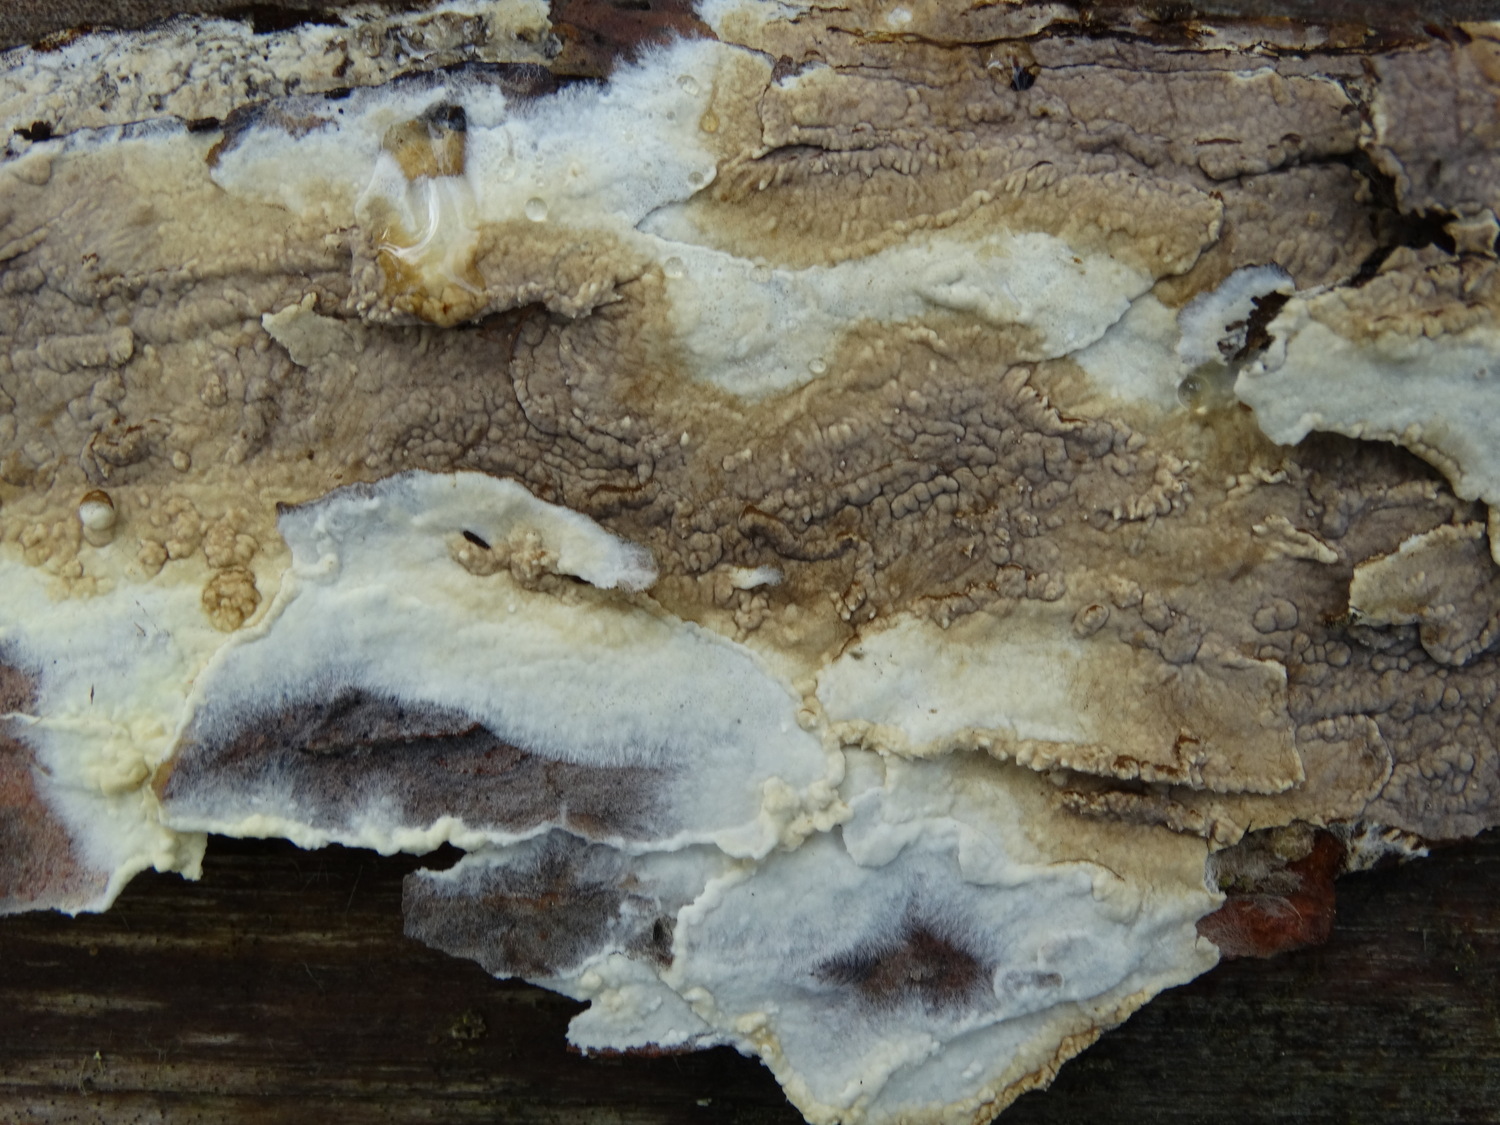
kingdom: Fungi
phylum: Basidiomycota
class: Agaricomycetes
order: Boletales
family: Coniophoraceae
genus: Coniophora
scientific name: Coniophora puteana
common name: gul tømmersvamp
